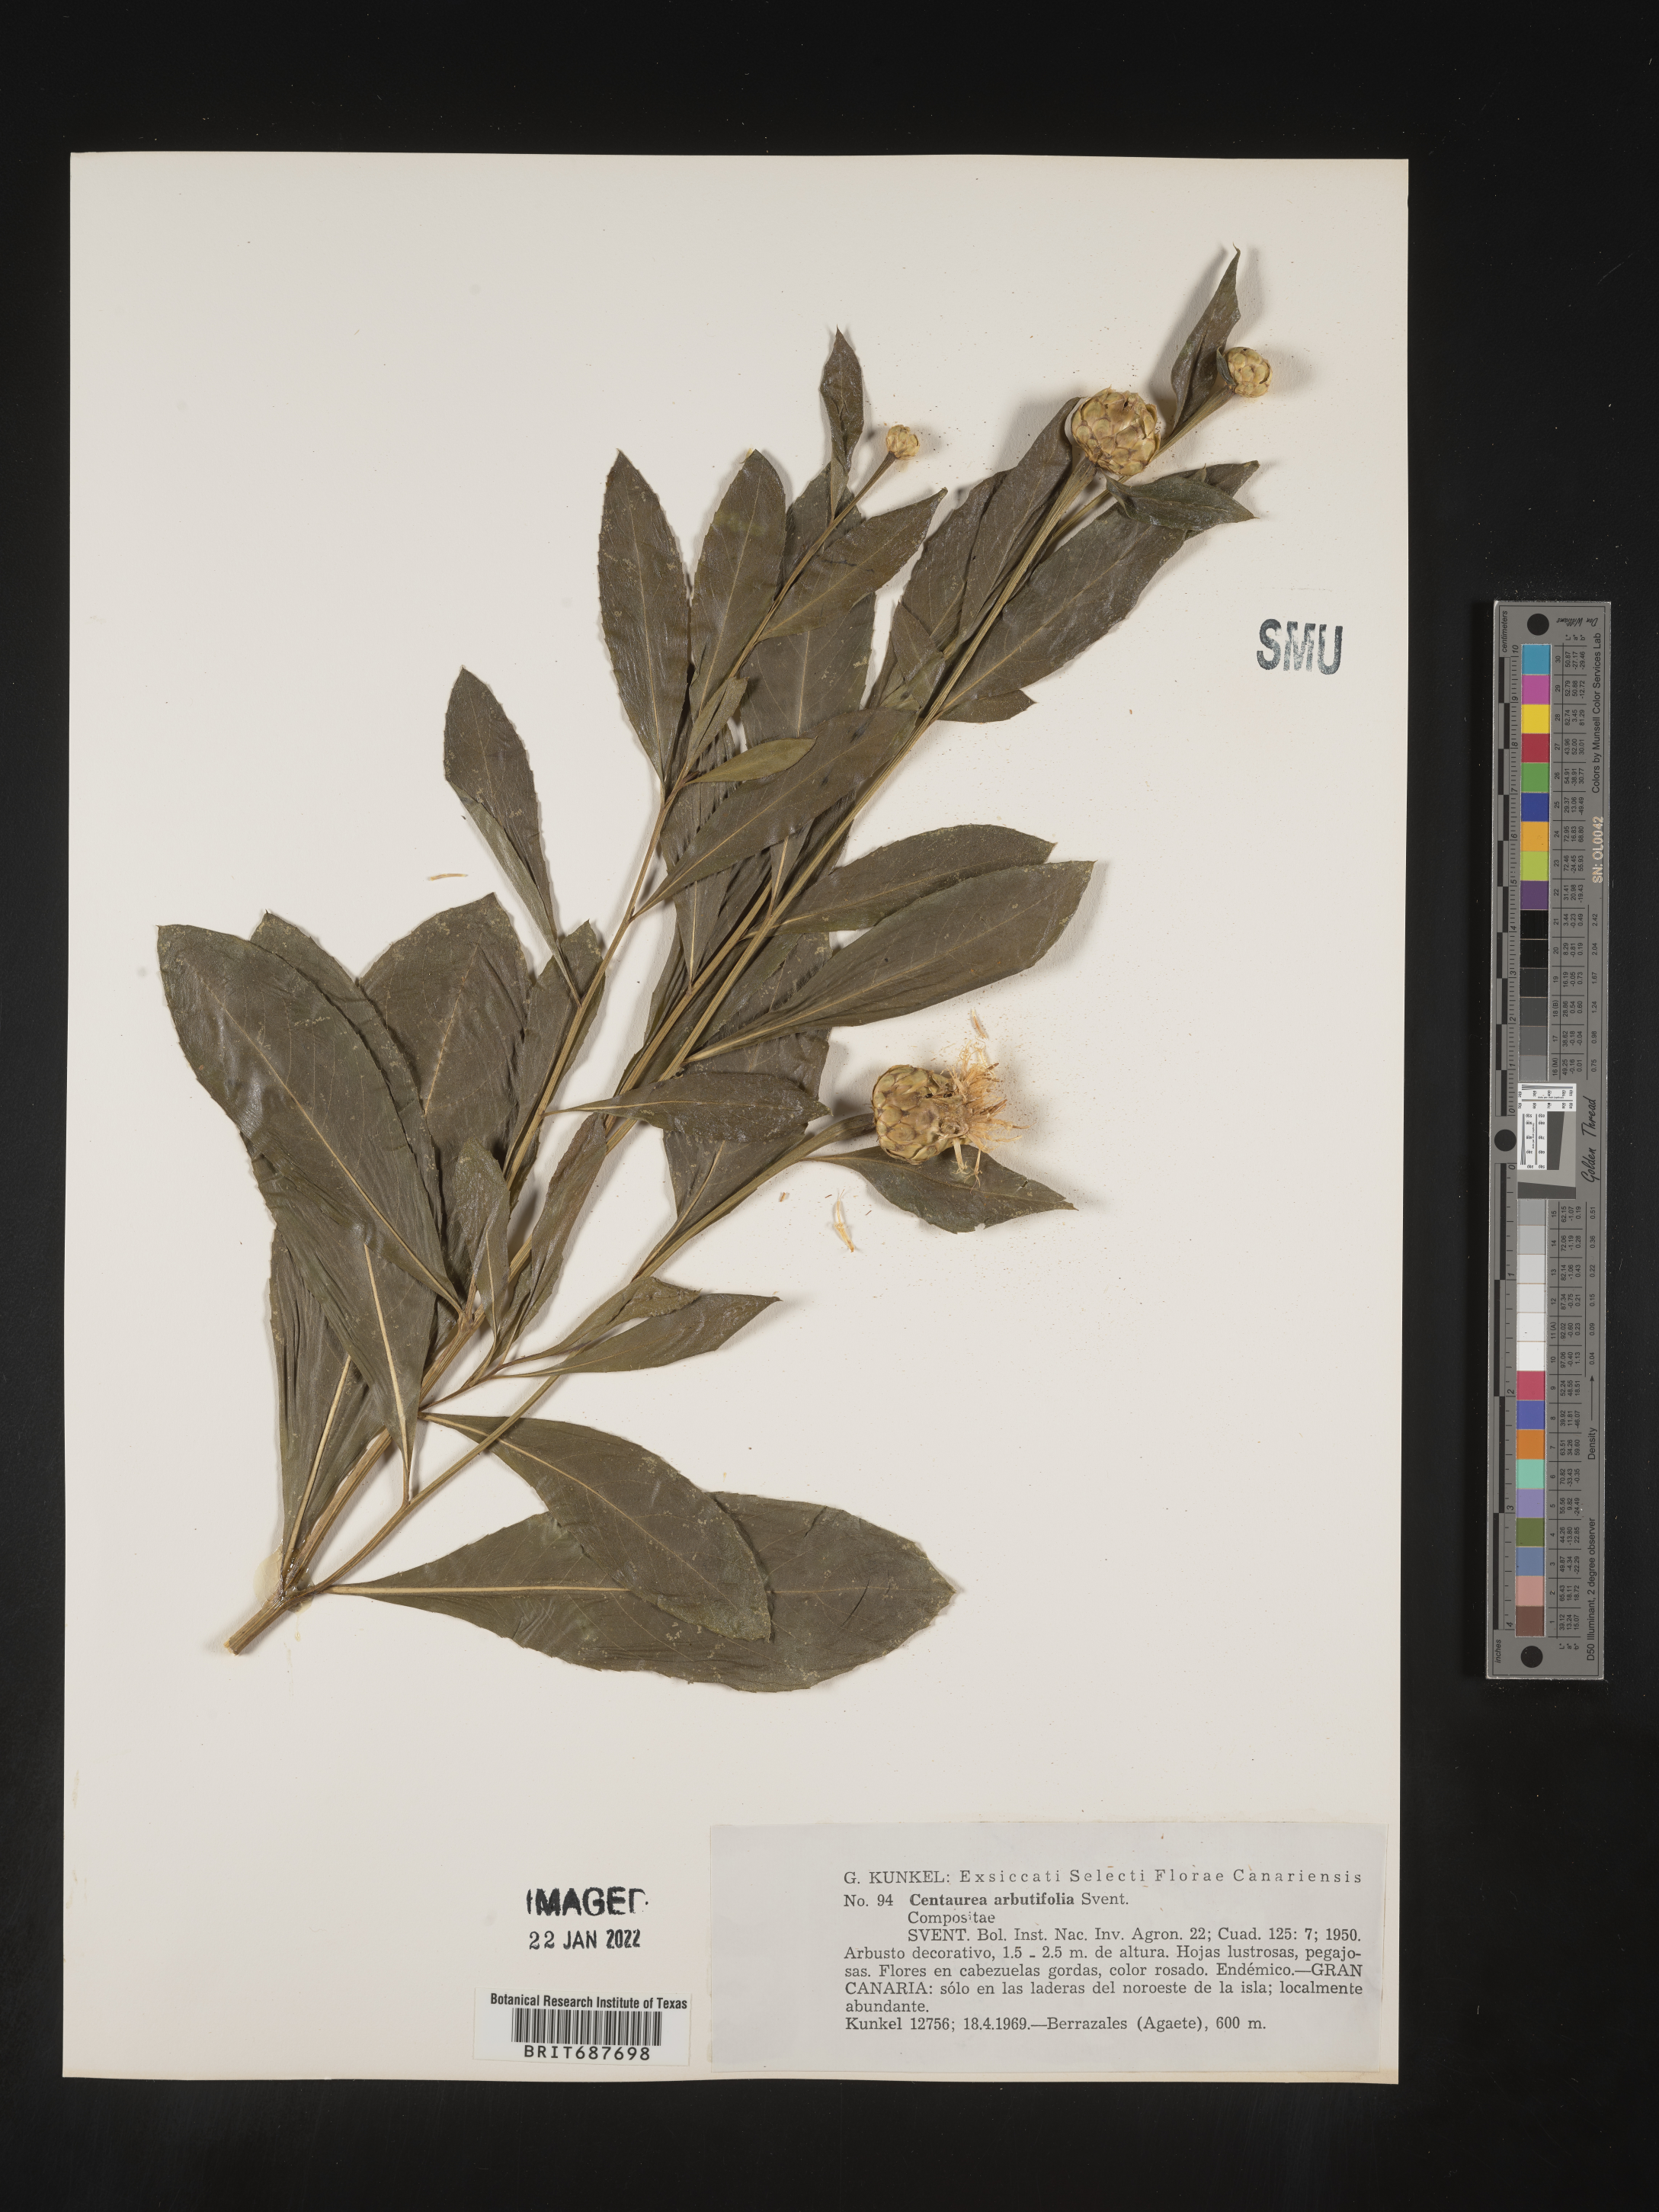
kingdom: Plantae
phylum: Tracheophyta
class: Magnoliopsida
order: Asterales
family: Asteraceae
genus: Centaurea
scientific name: Centaurea
